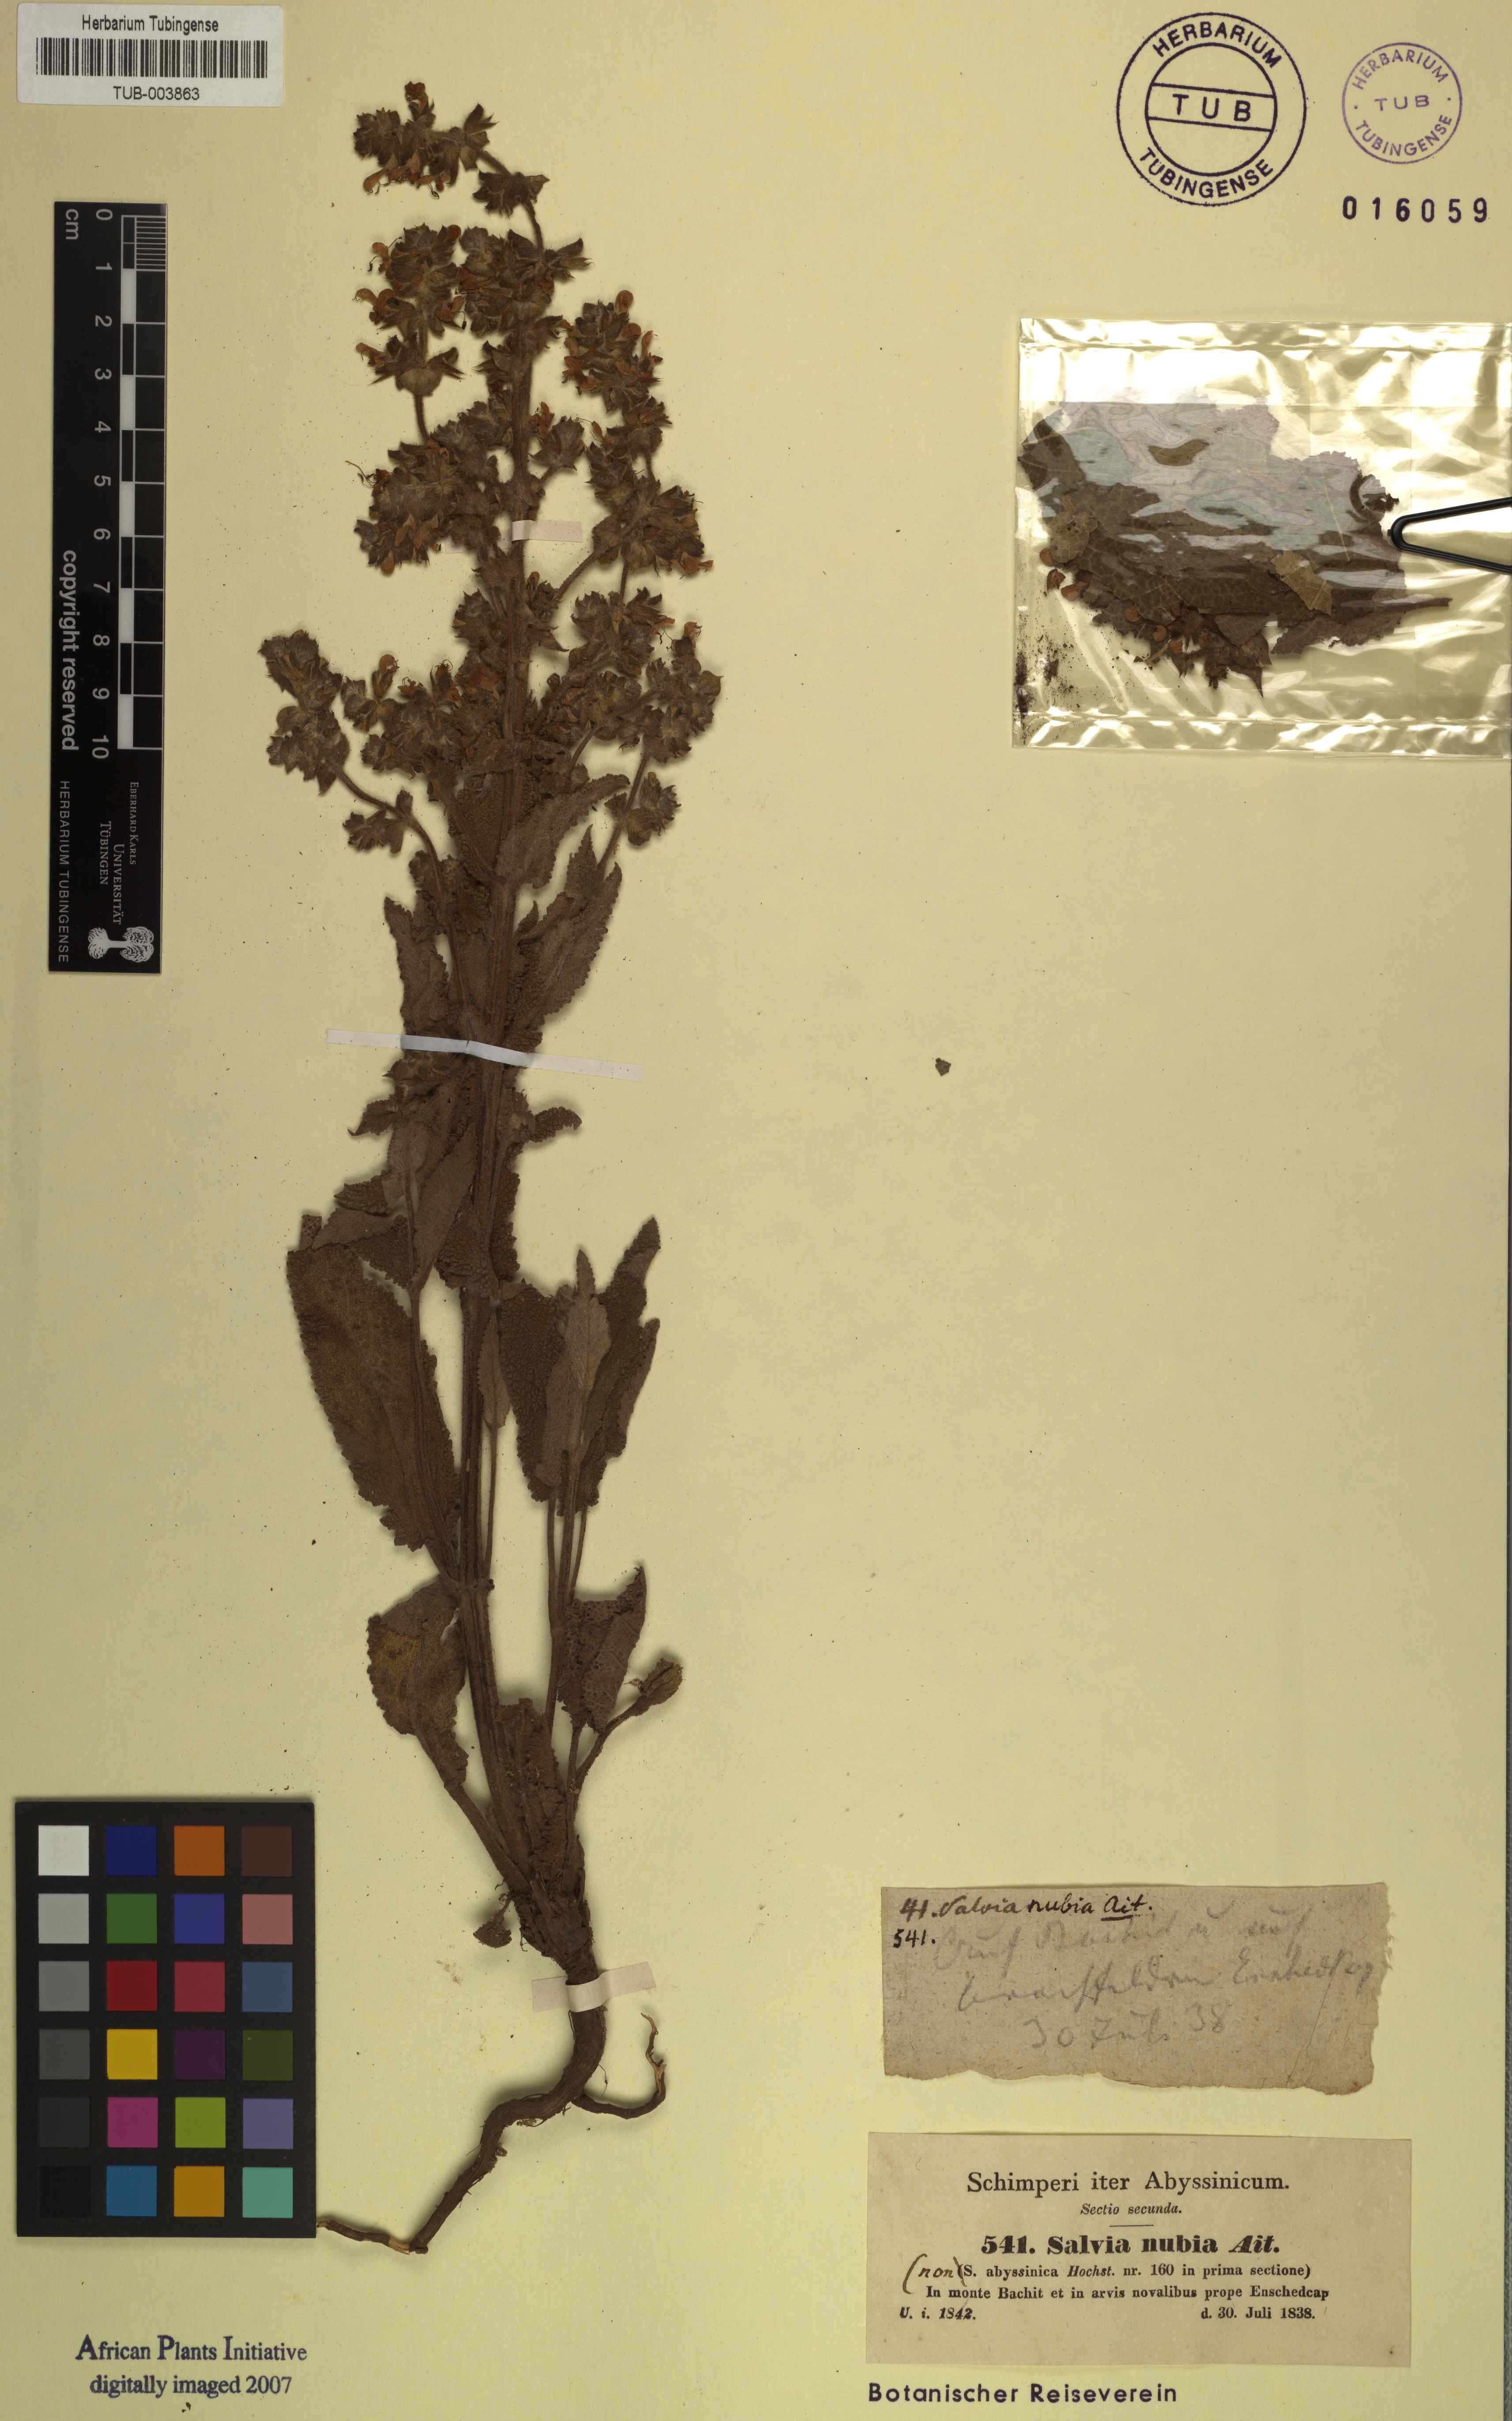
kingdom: Plantae
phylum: Tracheophyta
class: Magnoliopsida
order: Lamiales
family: Lamiaceae
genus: Salvia
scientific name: Salvia nubia
